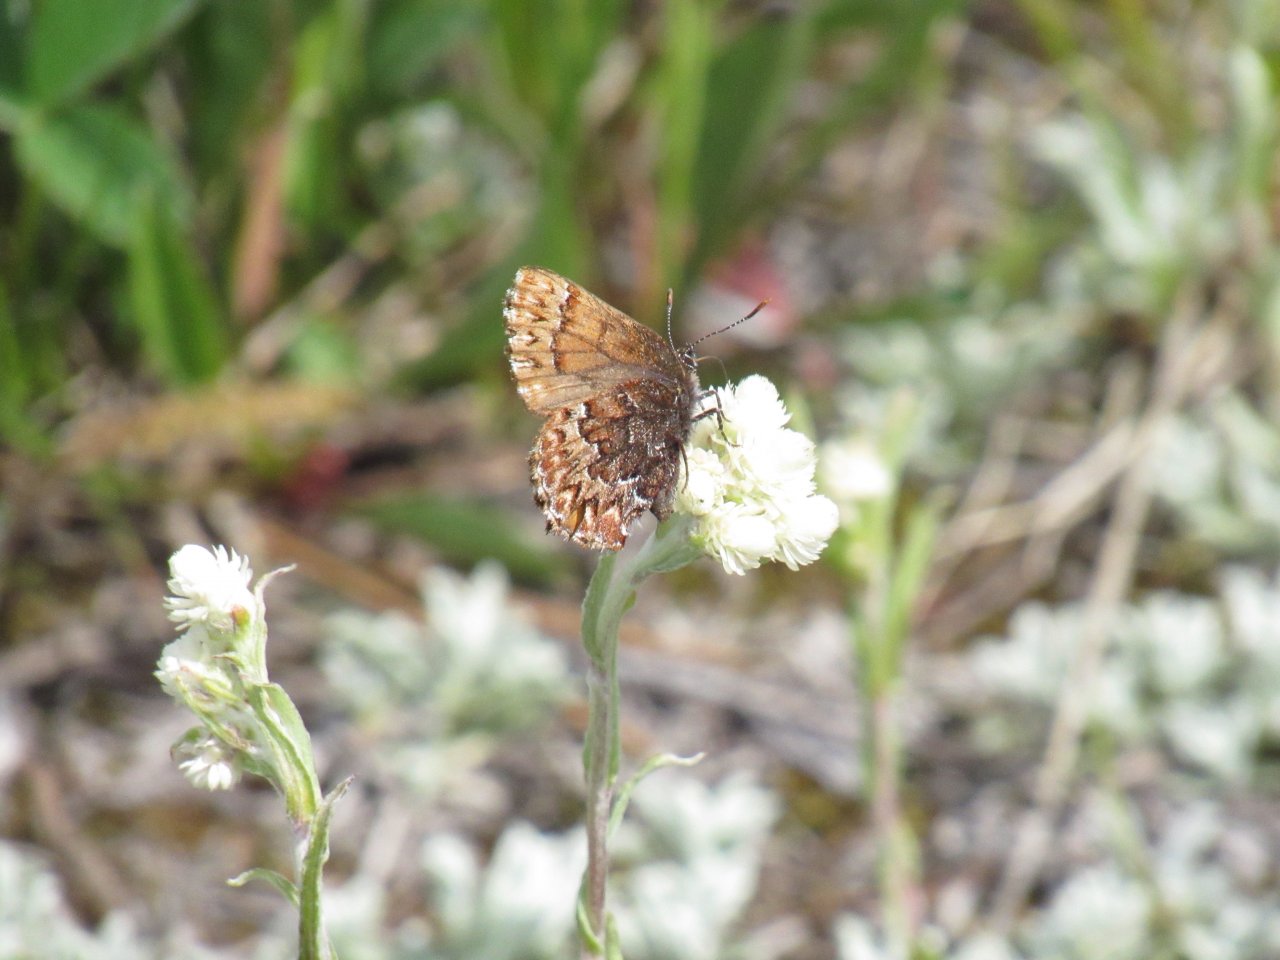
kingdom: Animalia
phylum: Arthropoda
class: Insecta
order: Lepidoptera
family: Lycaenidae
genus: Incisalia
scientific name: Incisalia eryphon
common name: Western Pine Elfin
